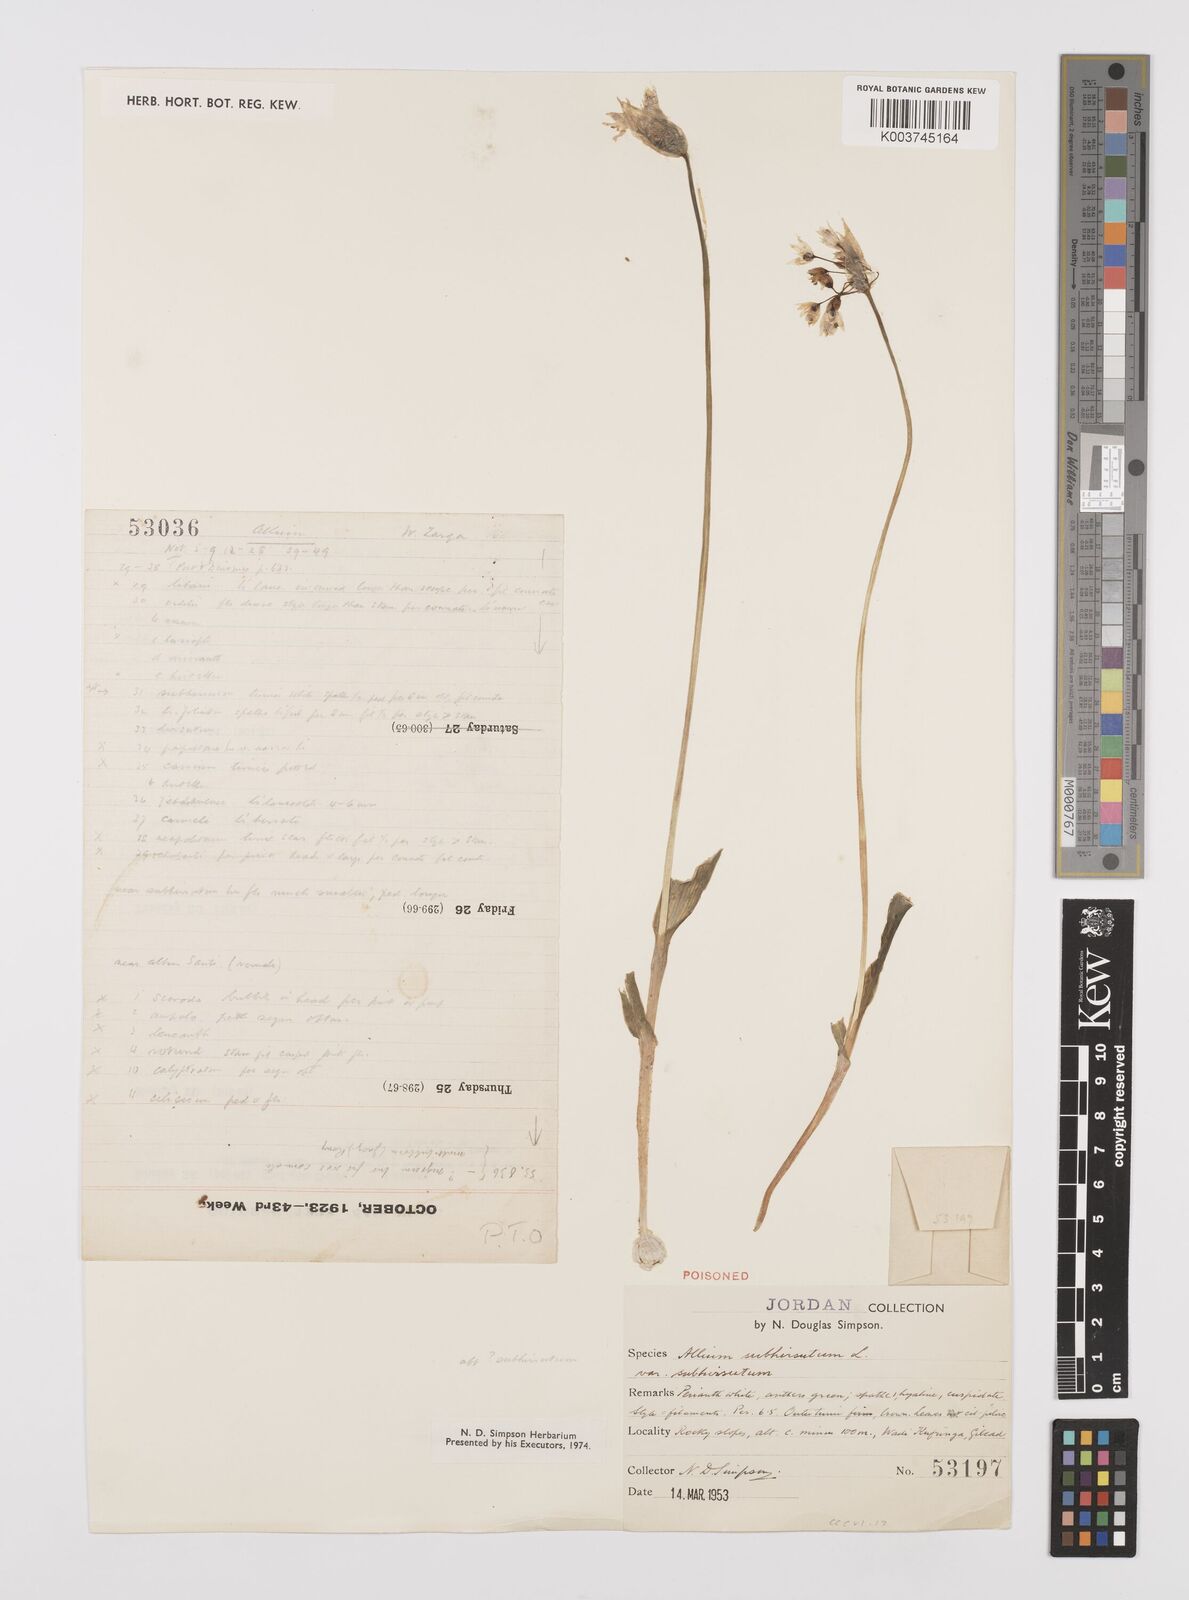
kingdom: Plantae
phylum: Tracheophyta
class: Liliopsida
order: Asparagales
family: Amaryllidaceae
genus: Allium
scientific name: Allium subhirsutum
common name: Hairy garlic
